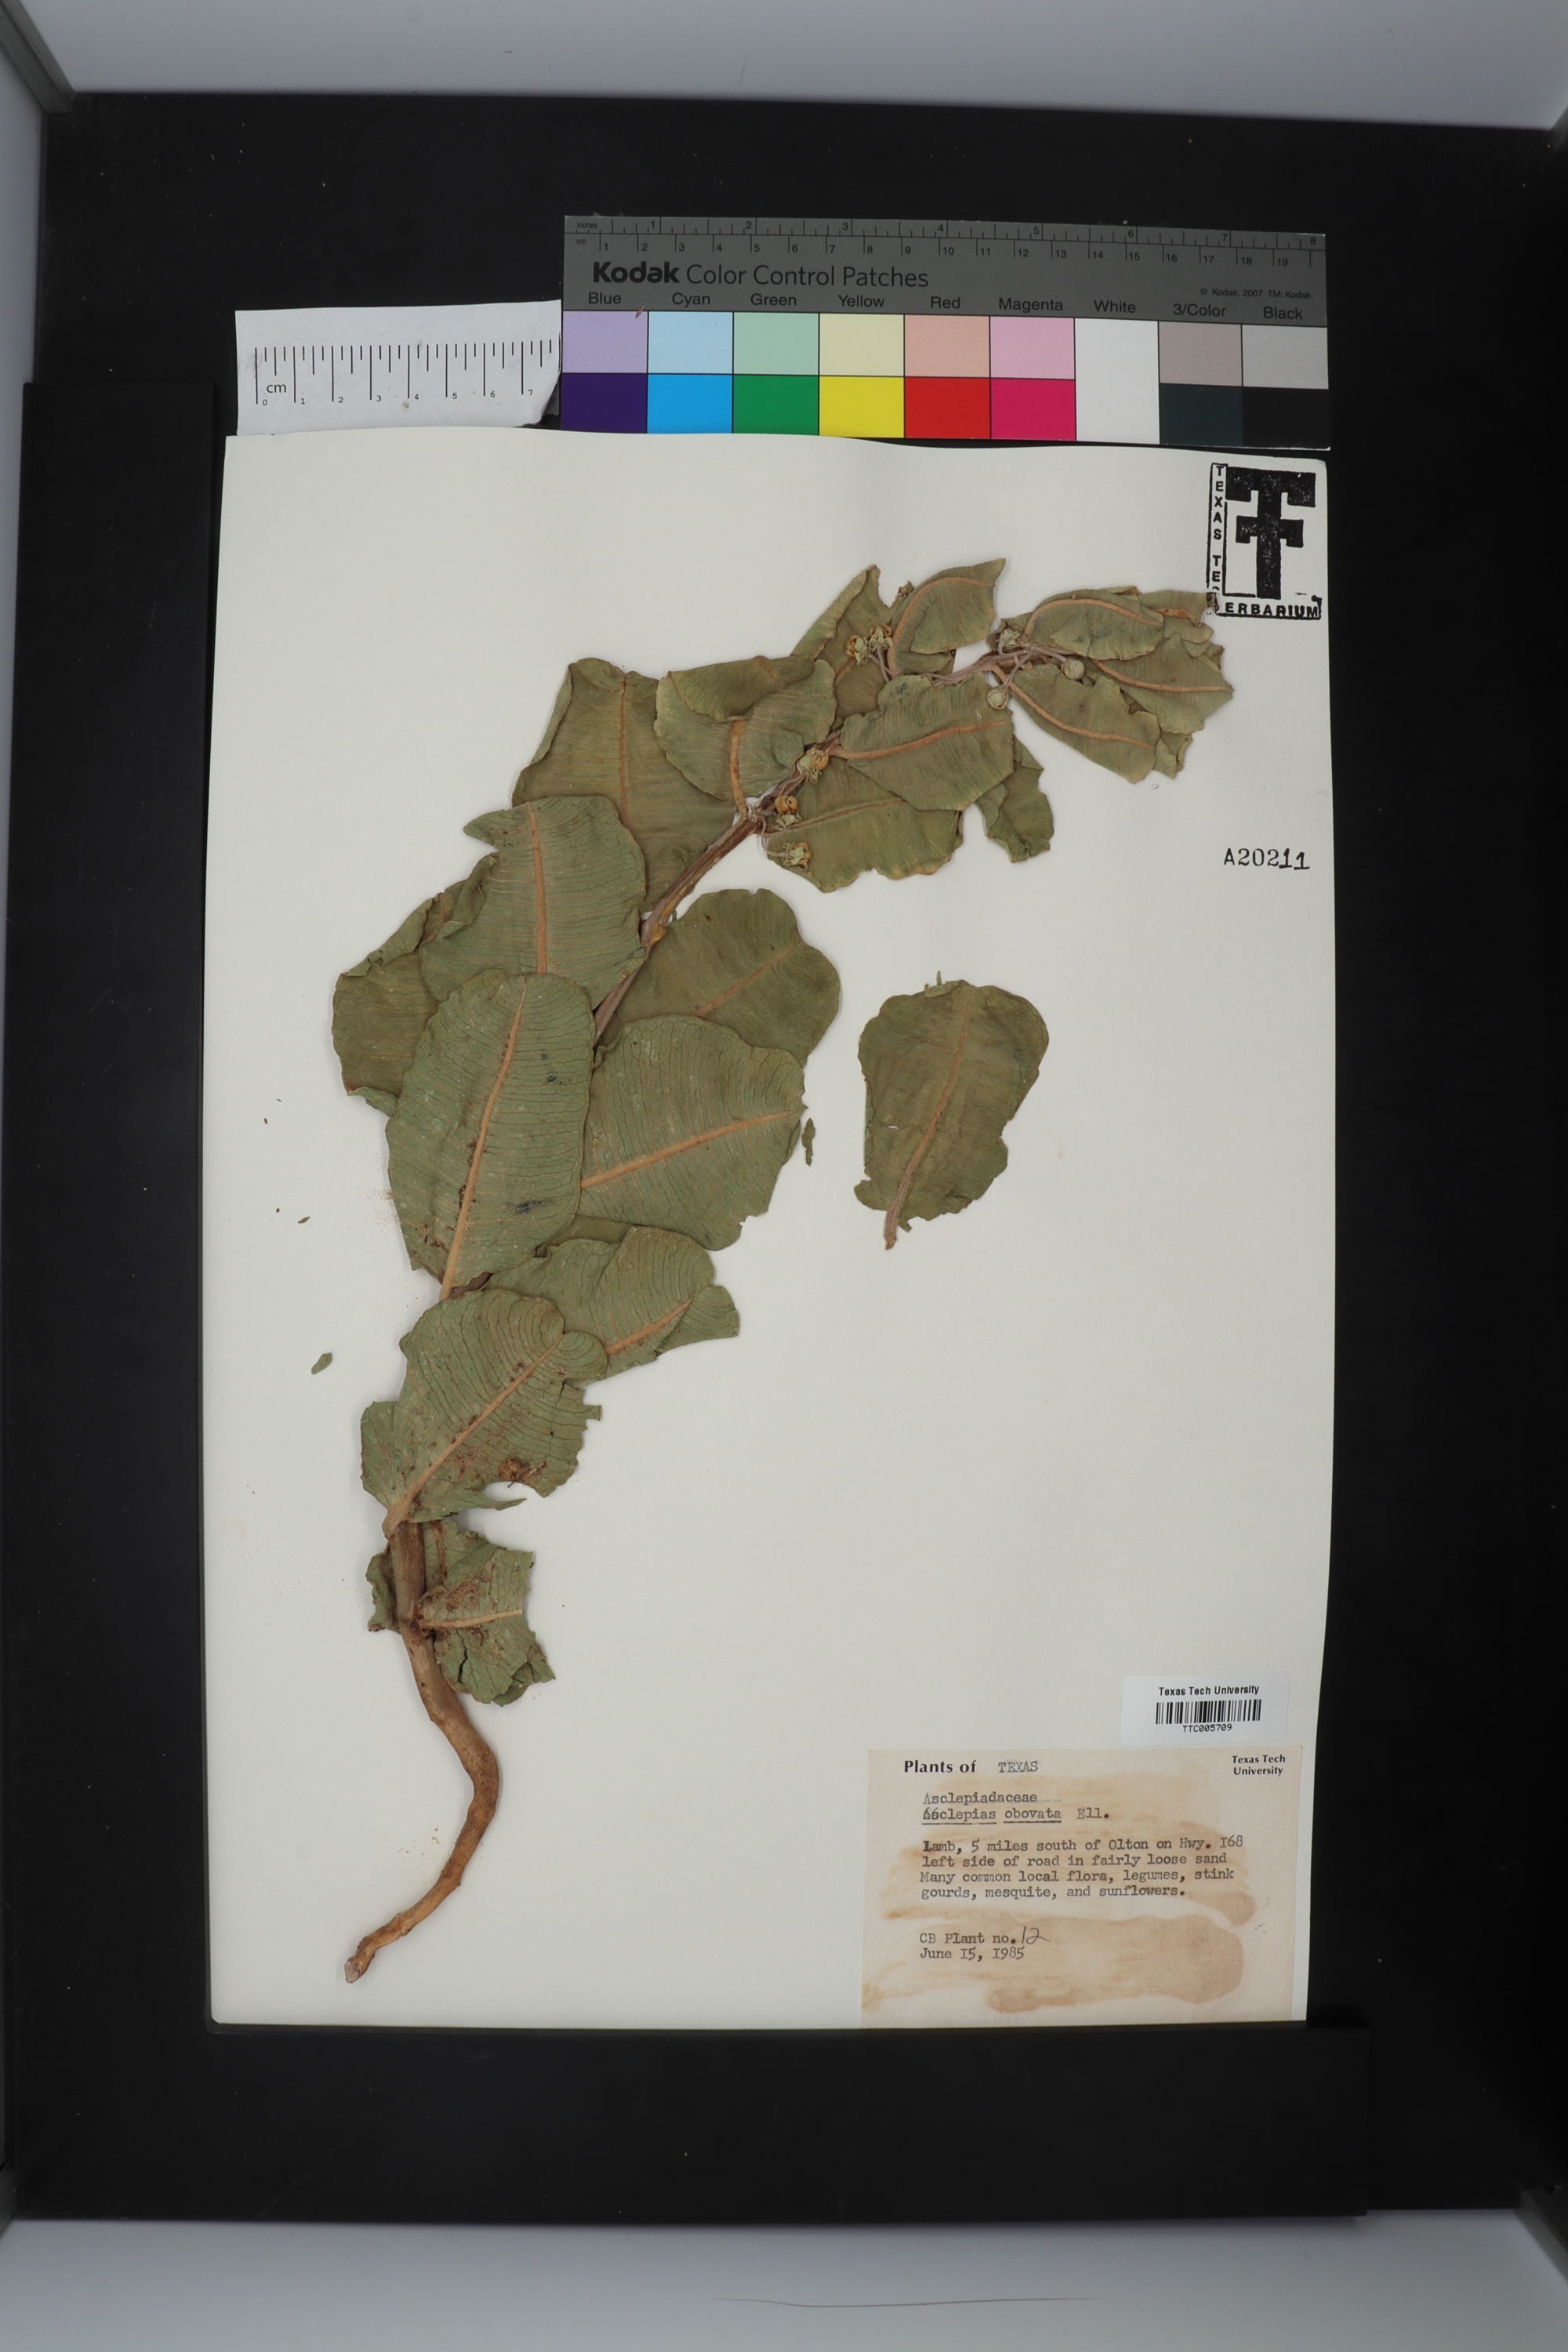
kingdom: Plantae
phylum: Tracheophyta
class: Magnoliopsida
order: Gentianales
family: Apocynaceae
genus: Asclepias
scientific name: Asclepias arenaria
